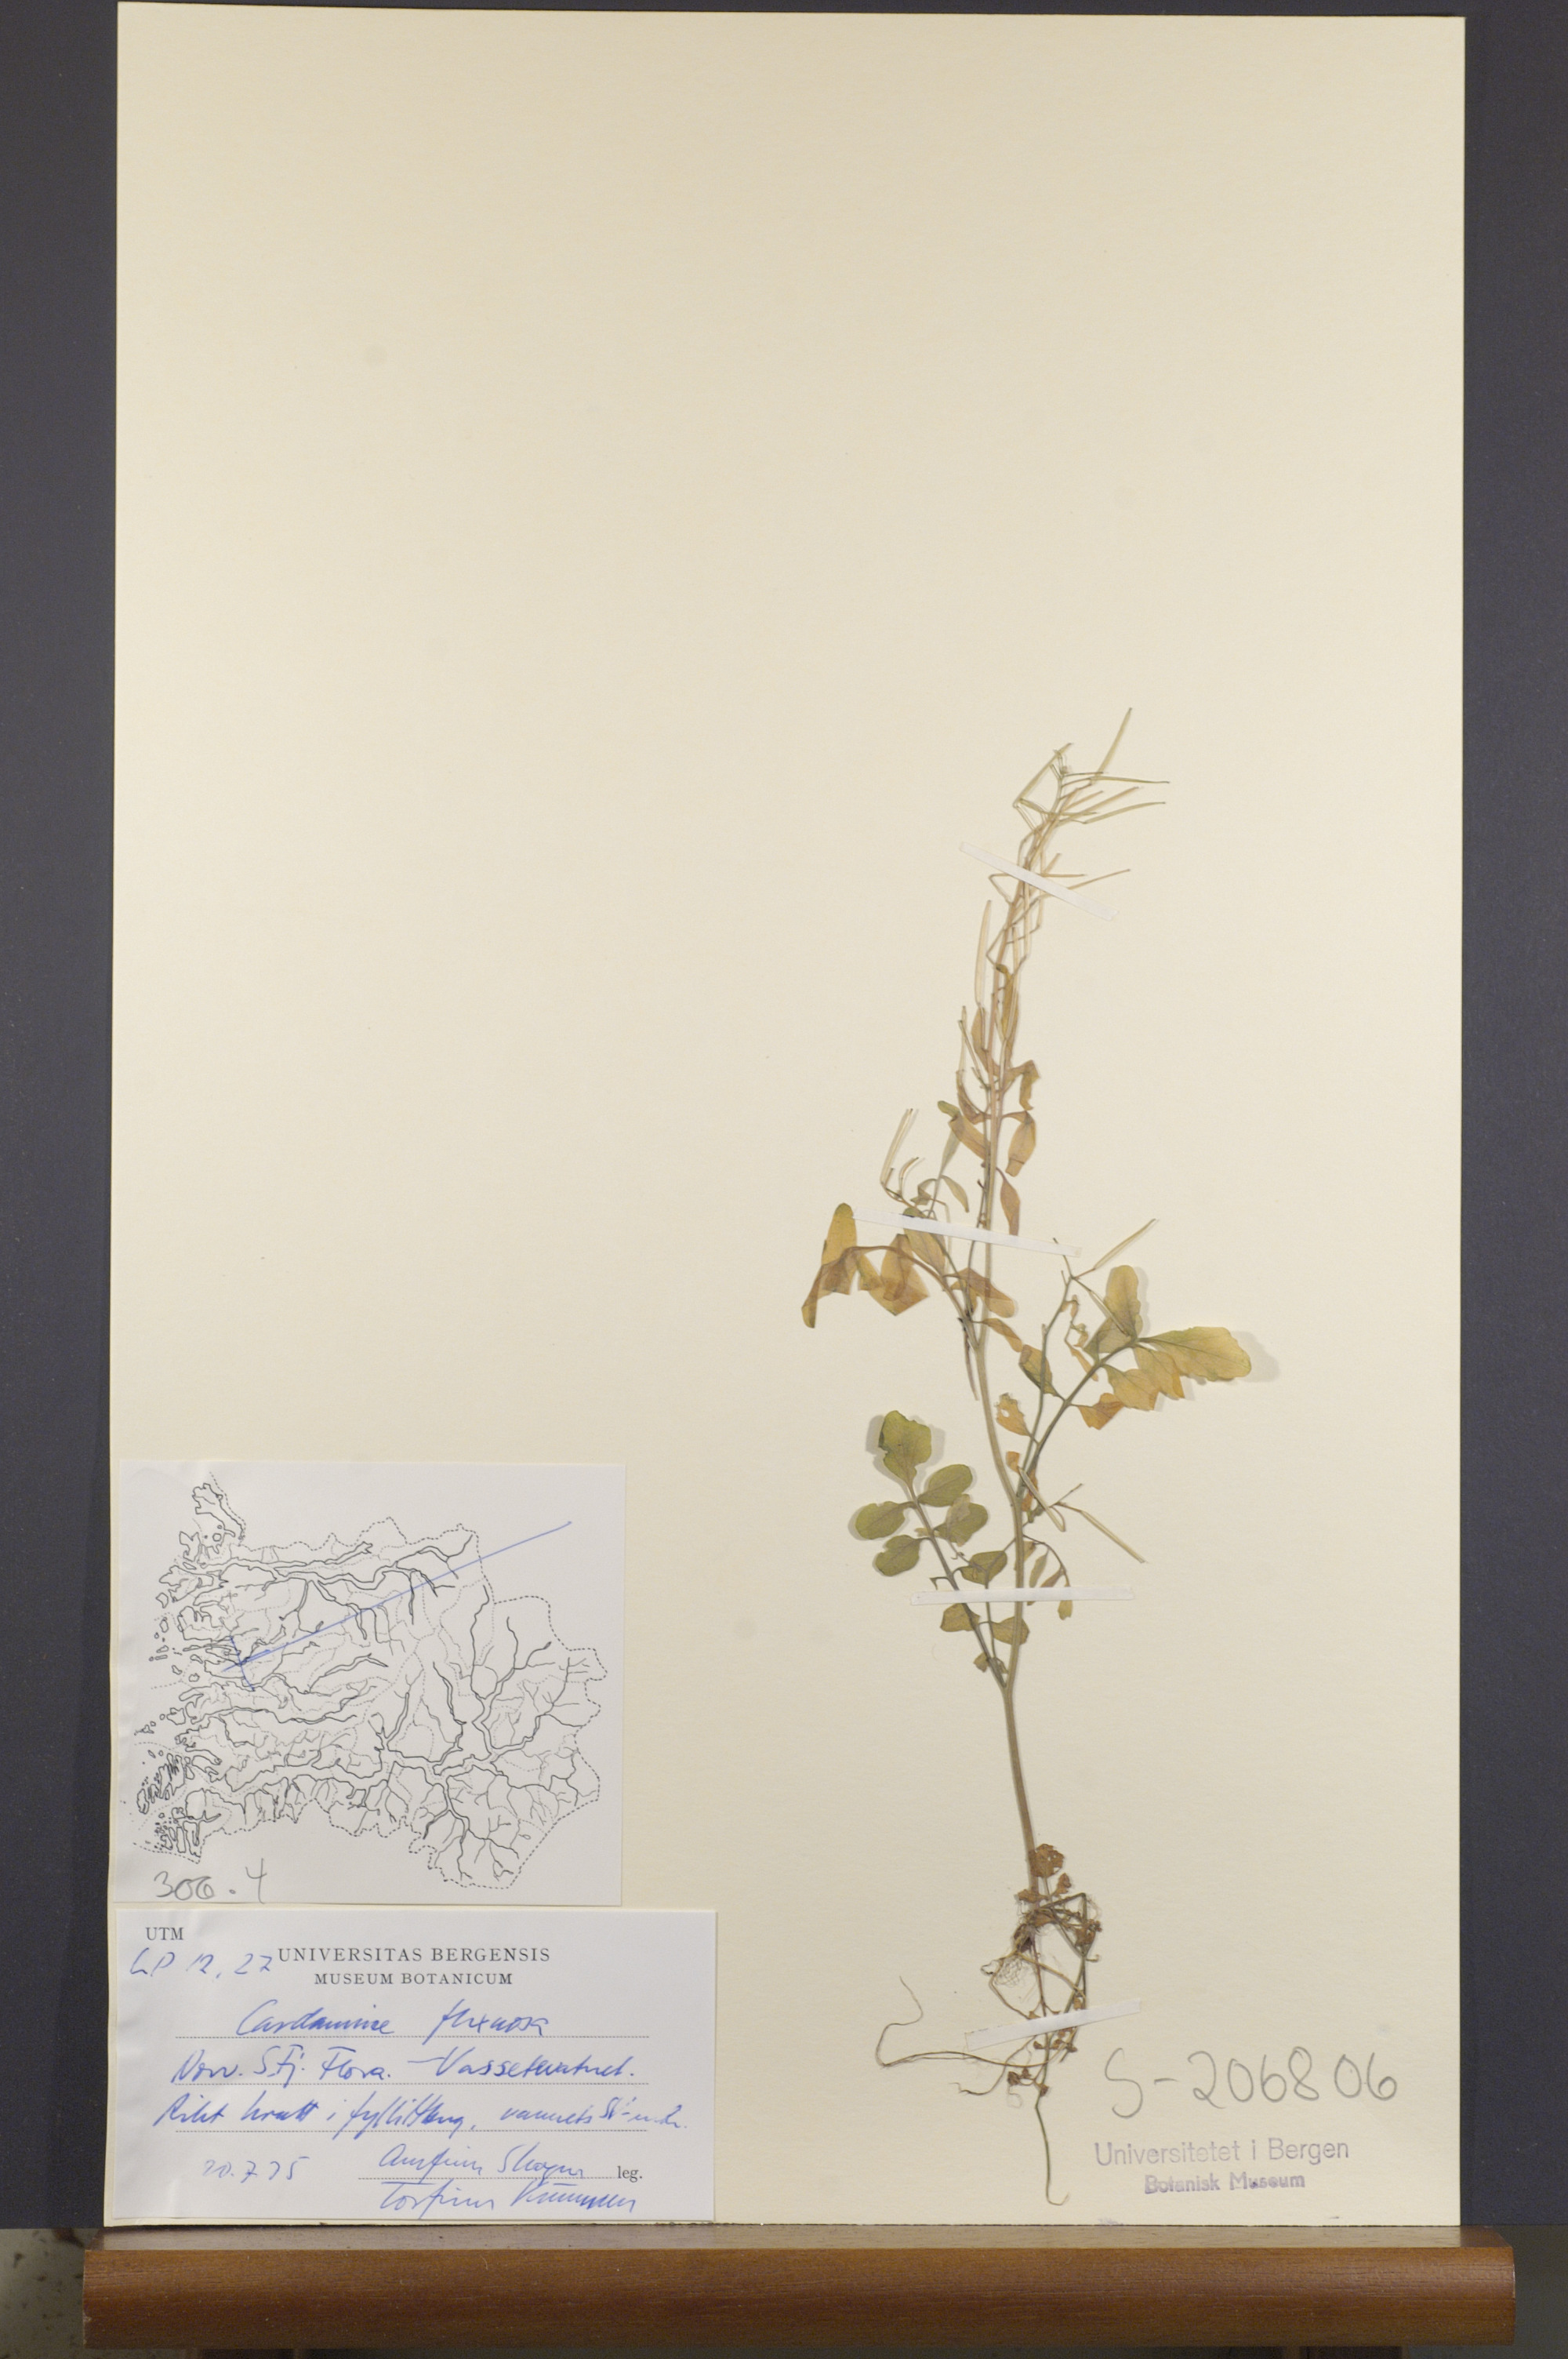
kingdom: Plantae
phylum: Tracheophyta
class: Magnoliopsida
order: Brassicales
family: Brassicaceae
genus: Cardamine
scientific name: Cardamine flexuosa
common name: Woodland bittercress
